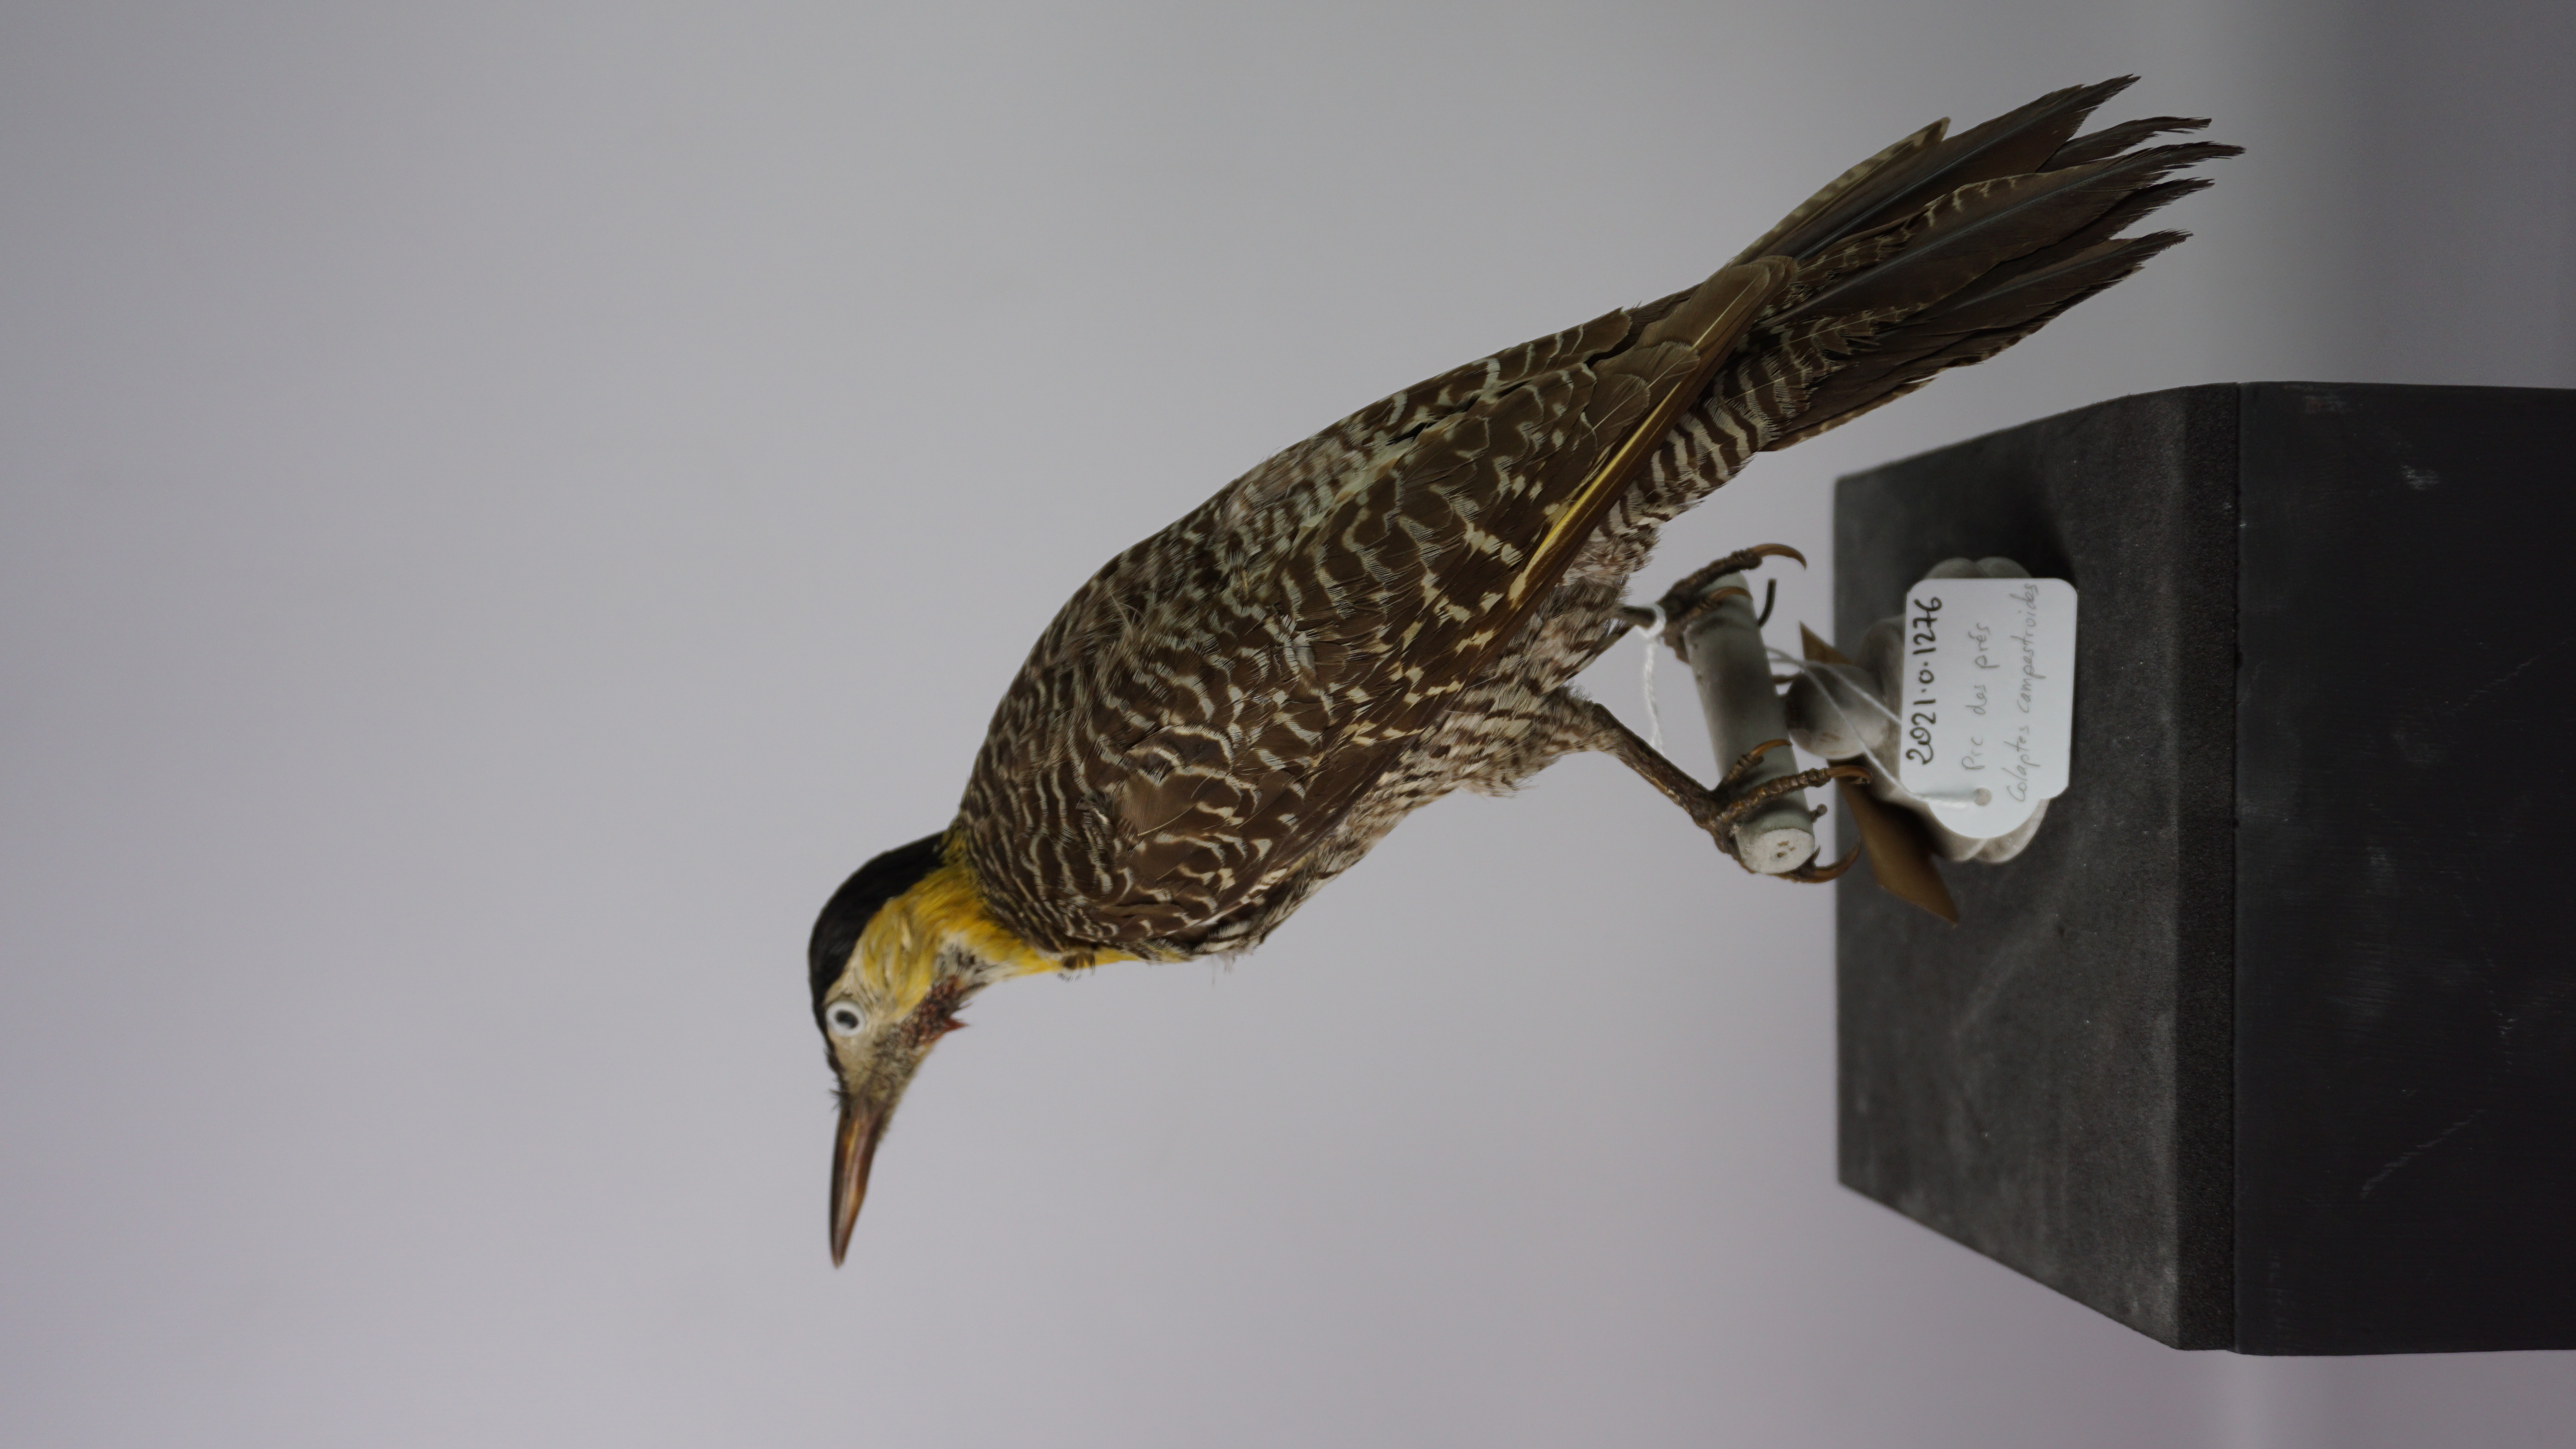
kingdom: Animalia
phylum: Chordata
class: Aves
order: Piciformes
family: Picidae
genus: Colaptes
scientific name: Colaptes campestris
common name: Campo flicker
